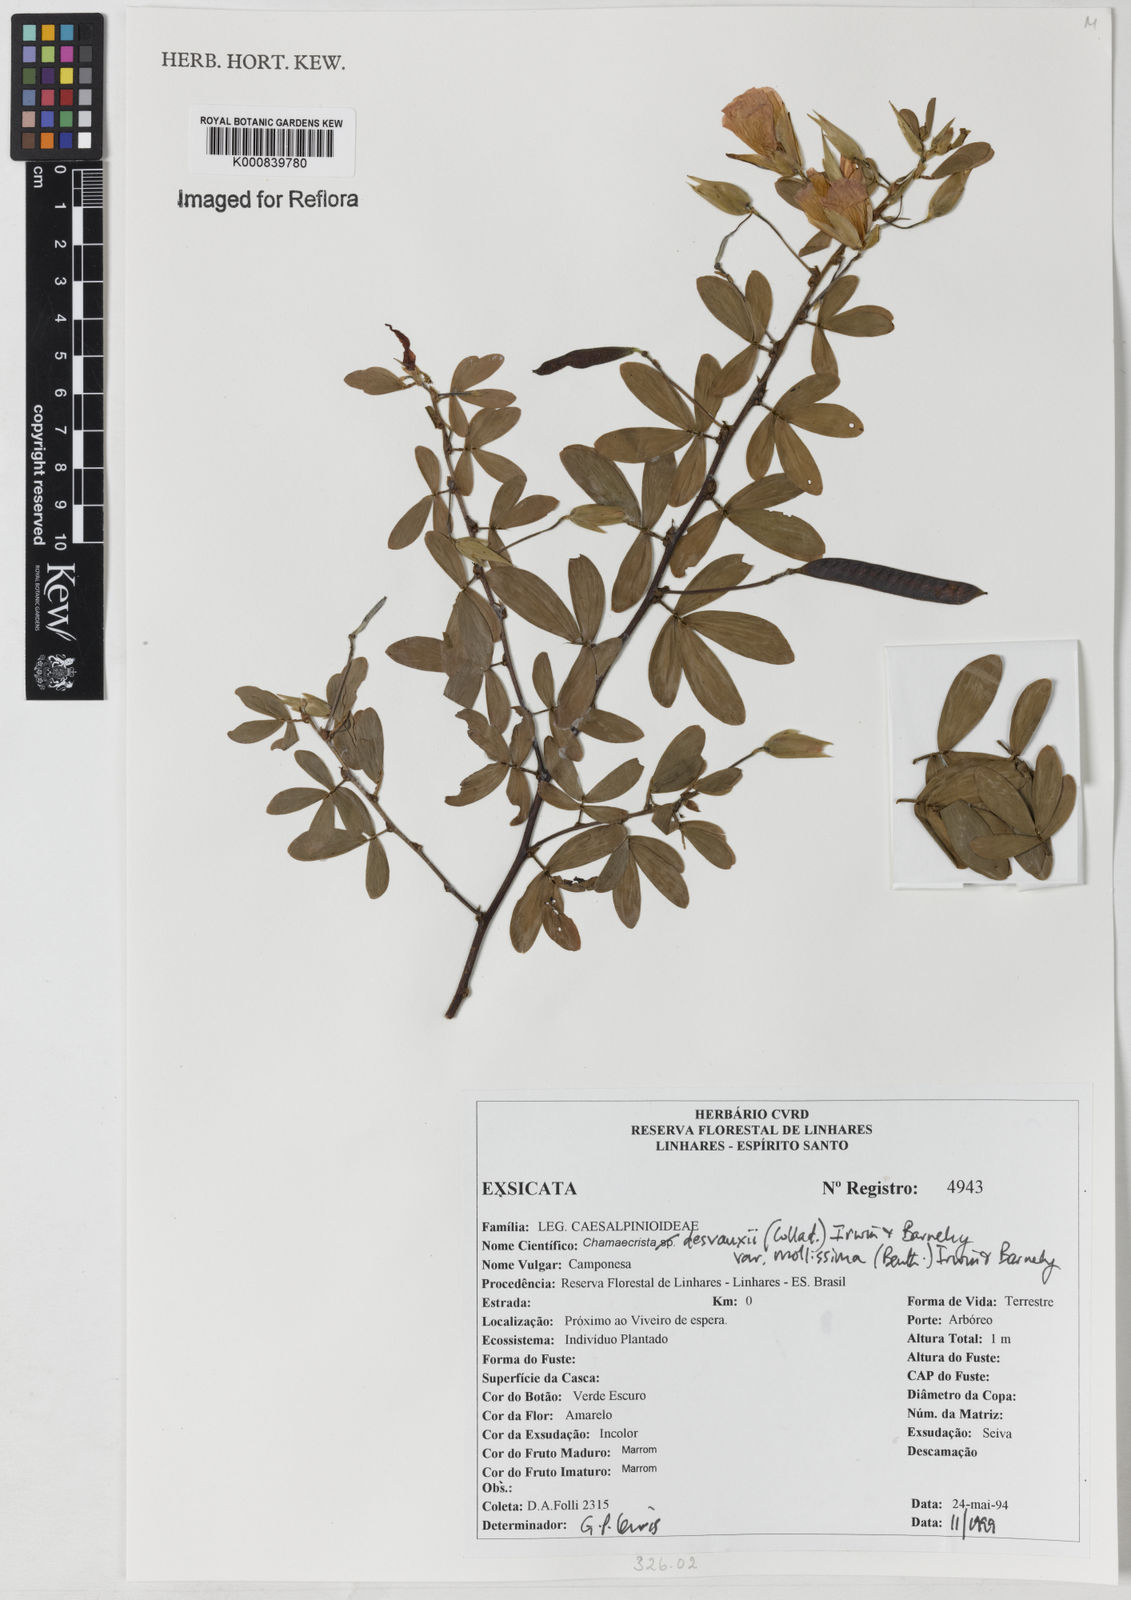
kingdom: Plantae
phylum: Tracheophyta
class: Magnoliopsida
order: Fabales
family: Fabaceae
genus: Chamaecrista
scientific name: Chamaecrista desvauxii
